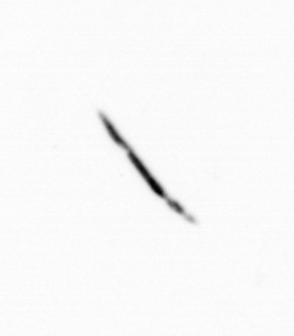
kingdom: Bacteria
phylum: Cyanobacteria
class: Cyanobacteriia
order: Cyanobacteriales
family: Microcoleaceae
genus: Trichodesmium
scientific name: Trichodesmium
